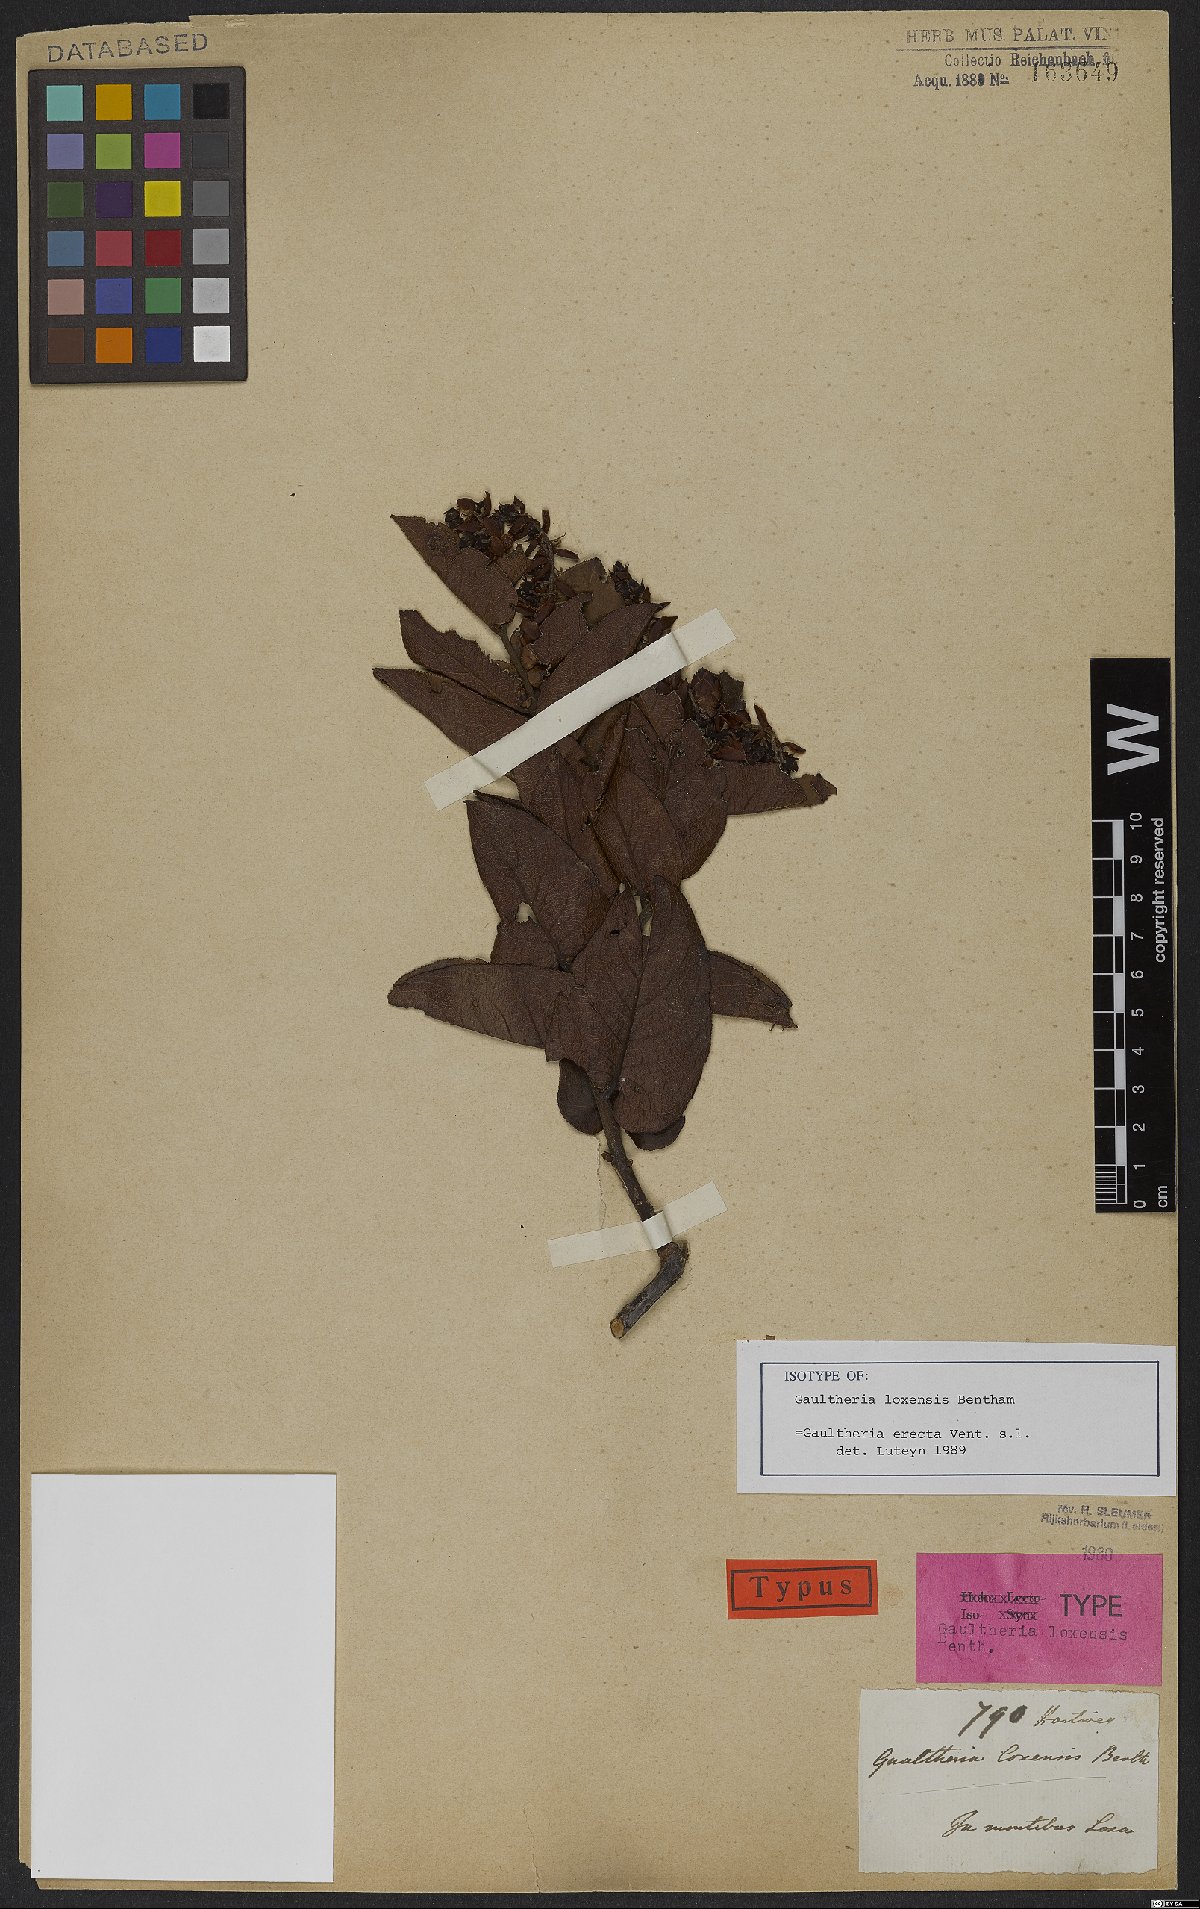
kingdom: Plantae
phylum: Tracheophyta
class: Magnoliopsida
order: Ericales
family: Ericaceae
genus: Gaultheria
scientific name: Gaultheria erecta
